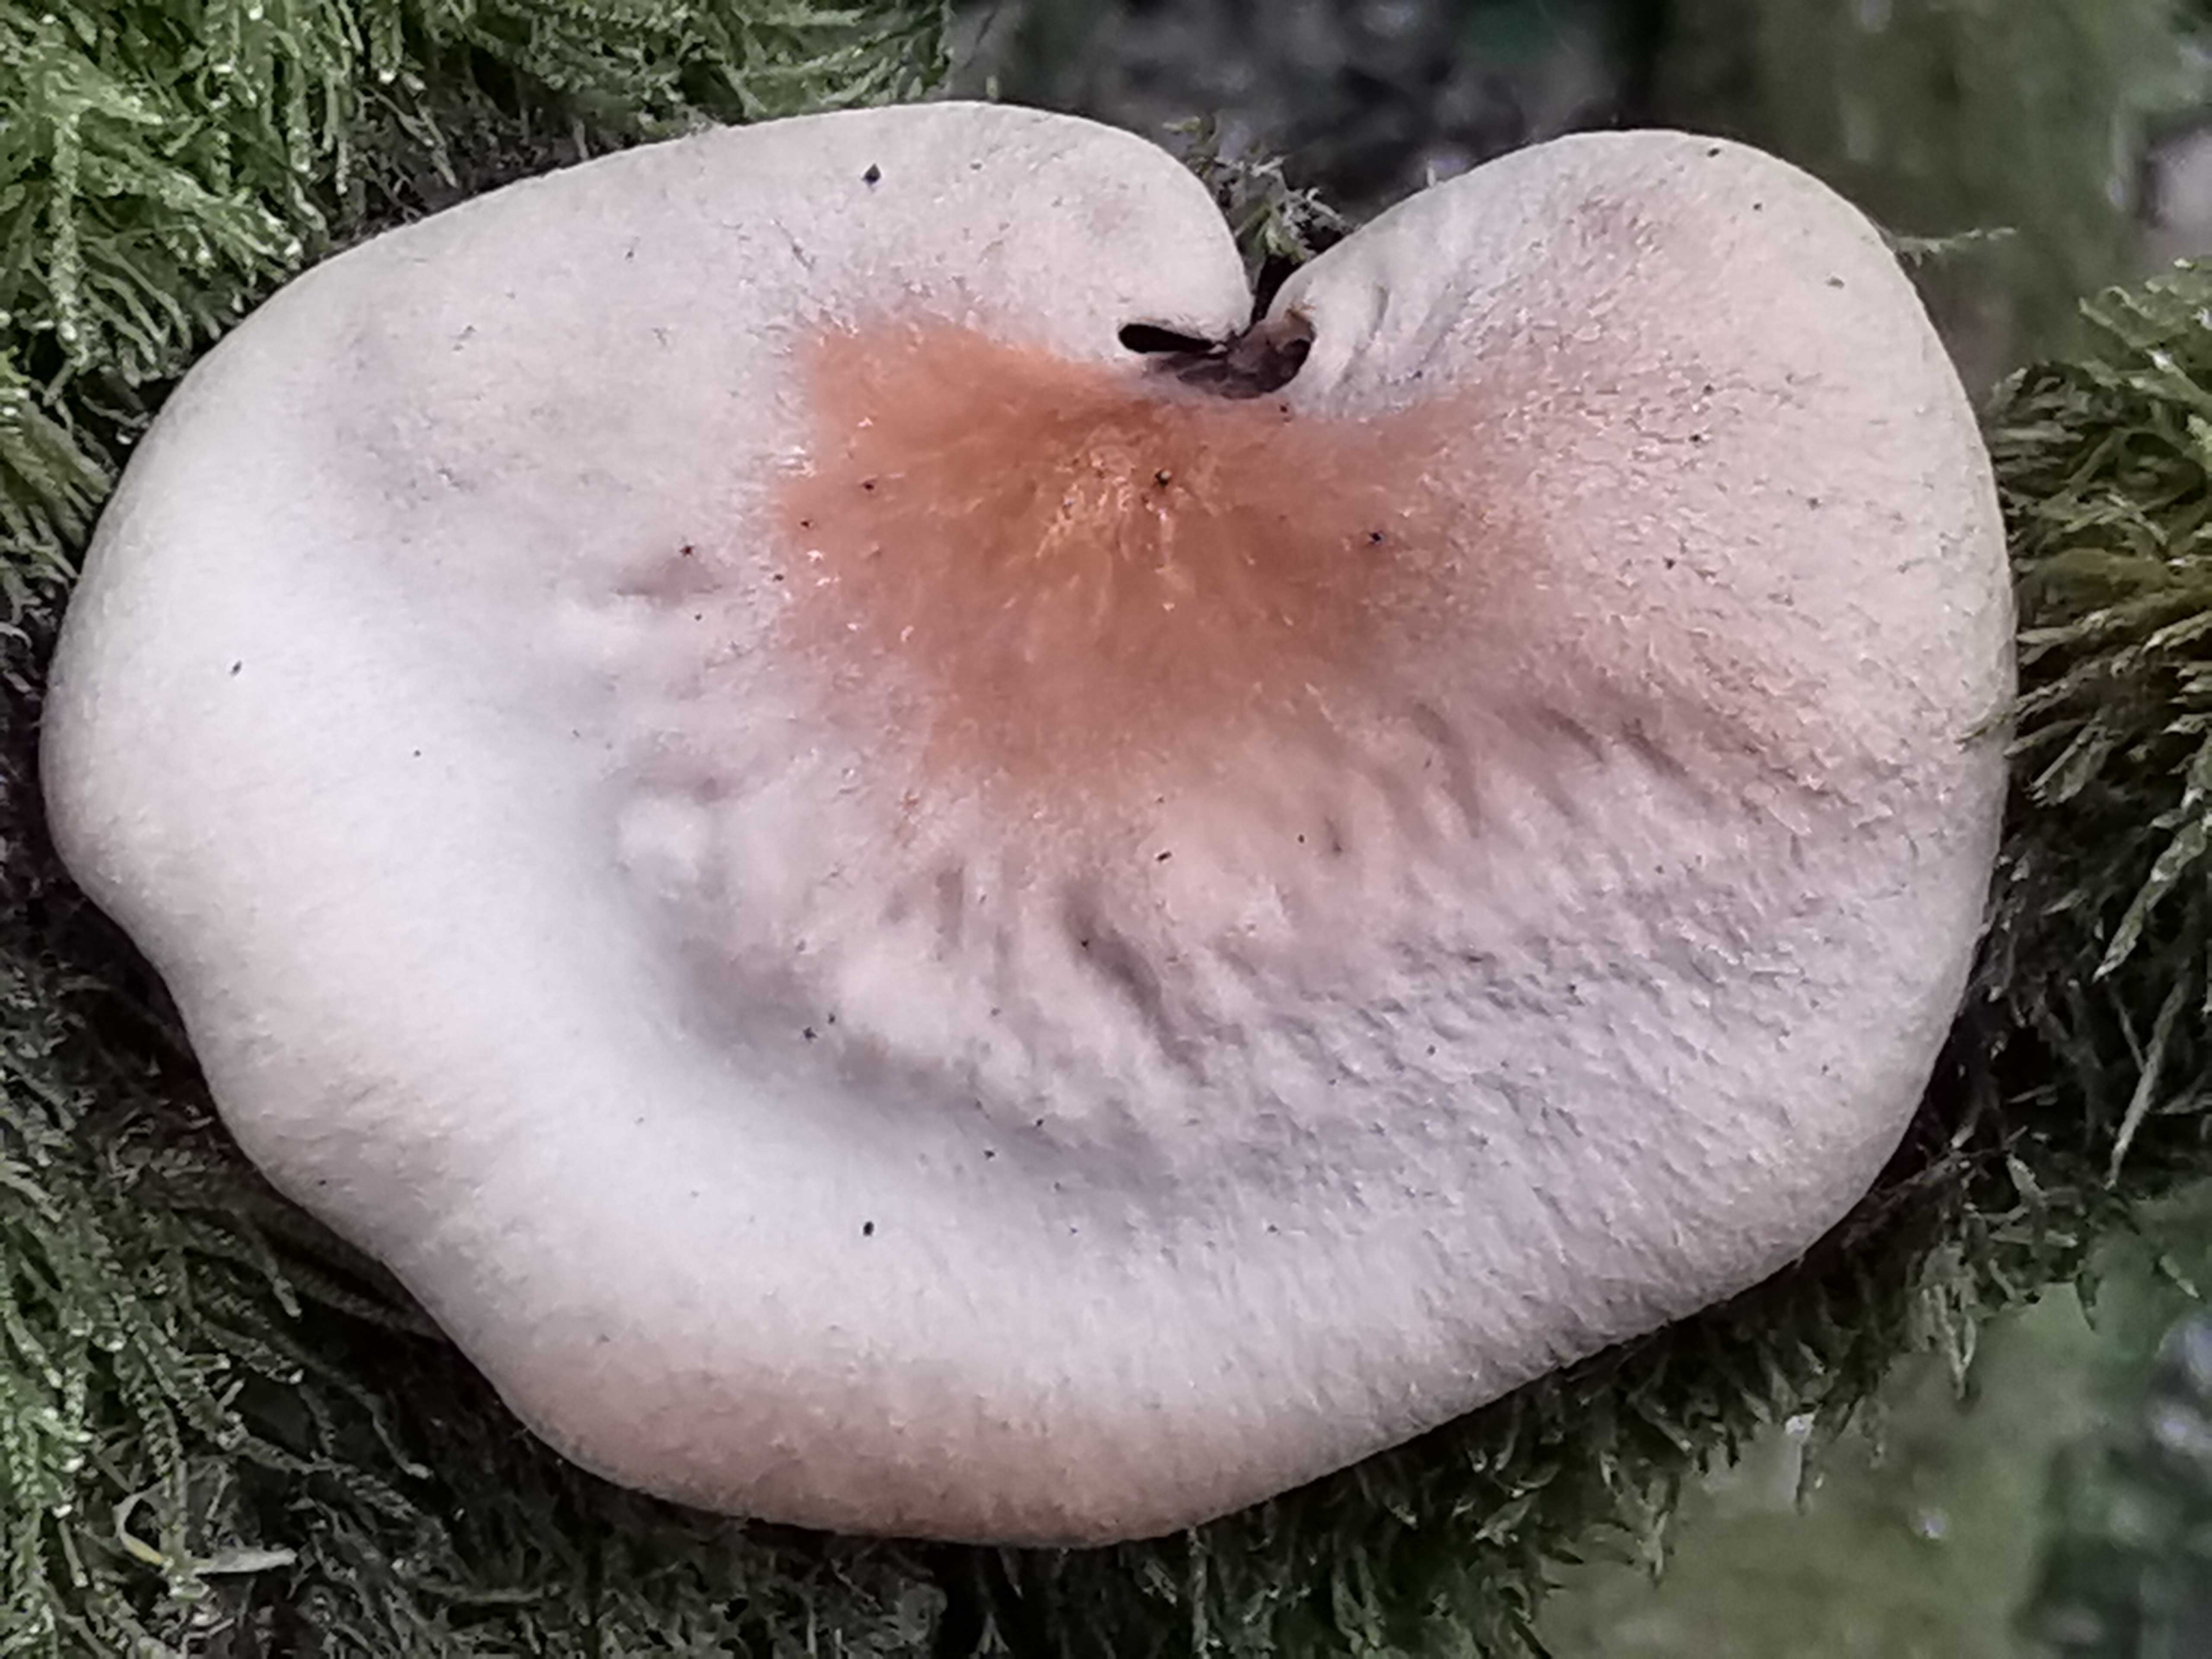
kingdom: Fungi
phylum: Basidiomycota
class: Agaricomycetes
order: Polyporales
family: Polyporaceae
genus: Cerioporus
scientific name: Cerioporus varius
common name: foranderlig stilkporesvamp
